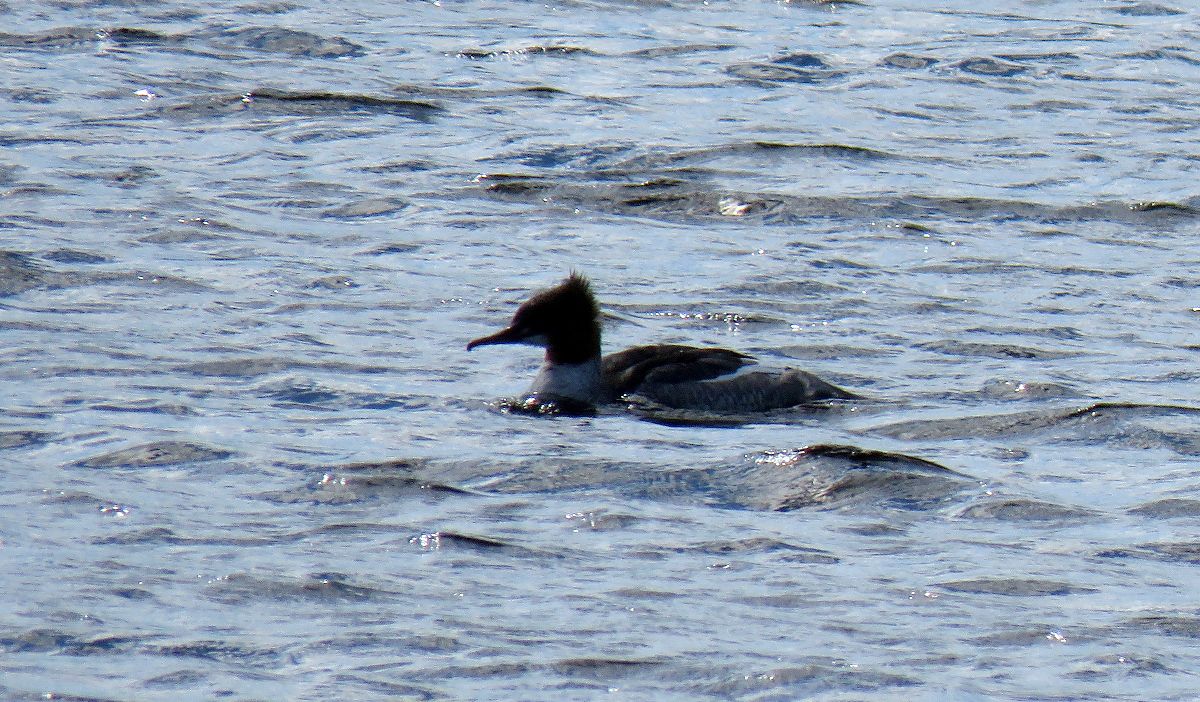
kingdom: Animalia
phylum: Chordata
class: Aves
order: Anseriformes
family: Anatidae
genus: Mergus
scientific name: Mergus merganser
